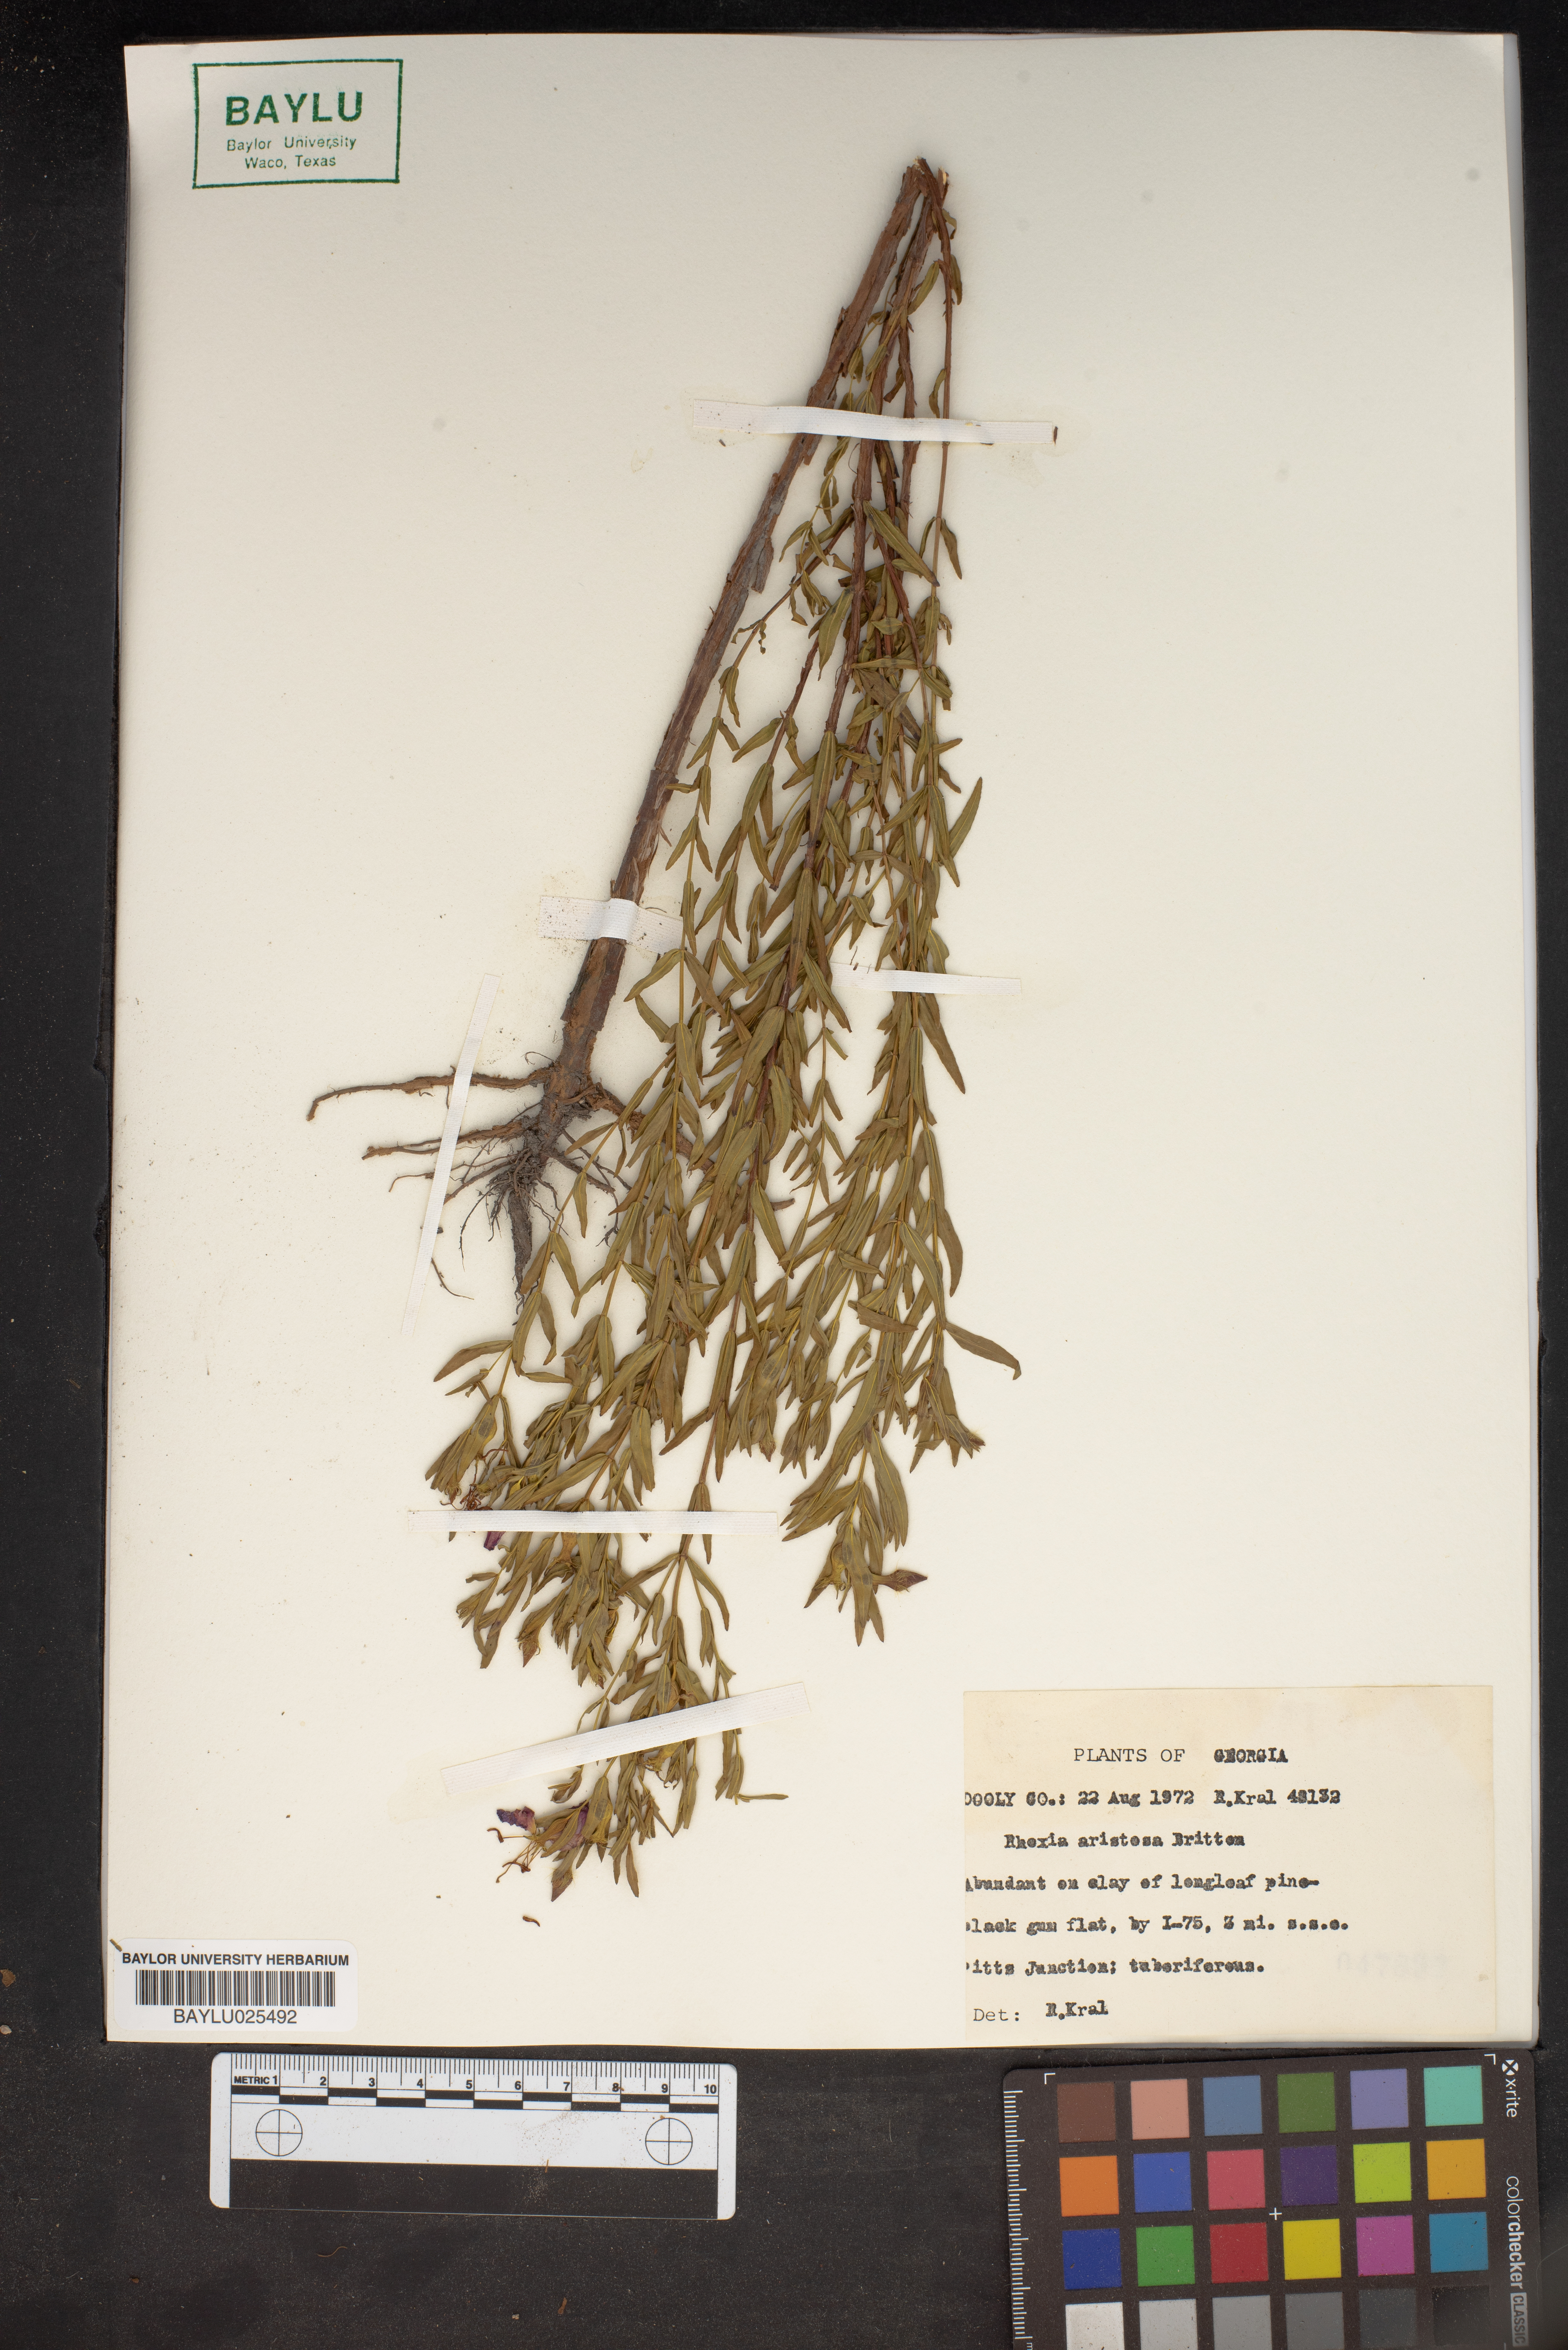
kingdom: Plantae
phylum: Tracheophyta
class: Magnoliopsida
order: Myrtales
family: Melastomataceae
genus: Rhexia
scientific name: Rhexia aristosa
